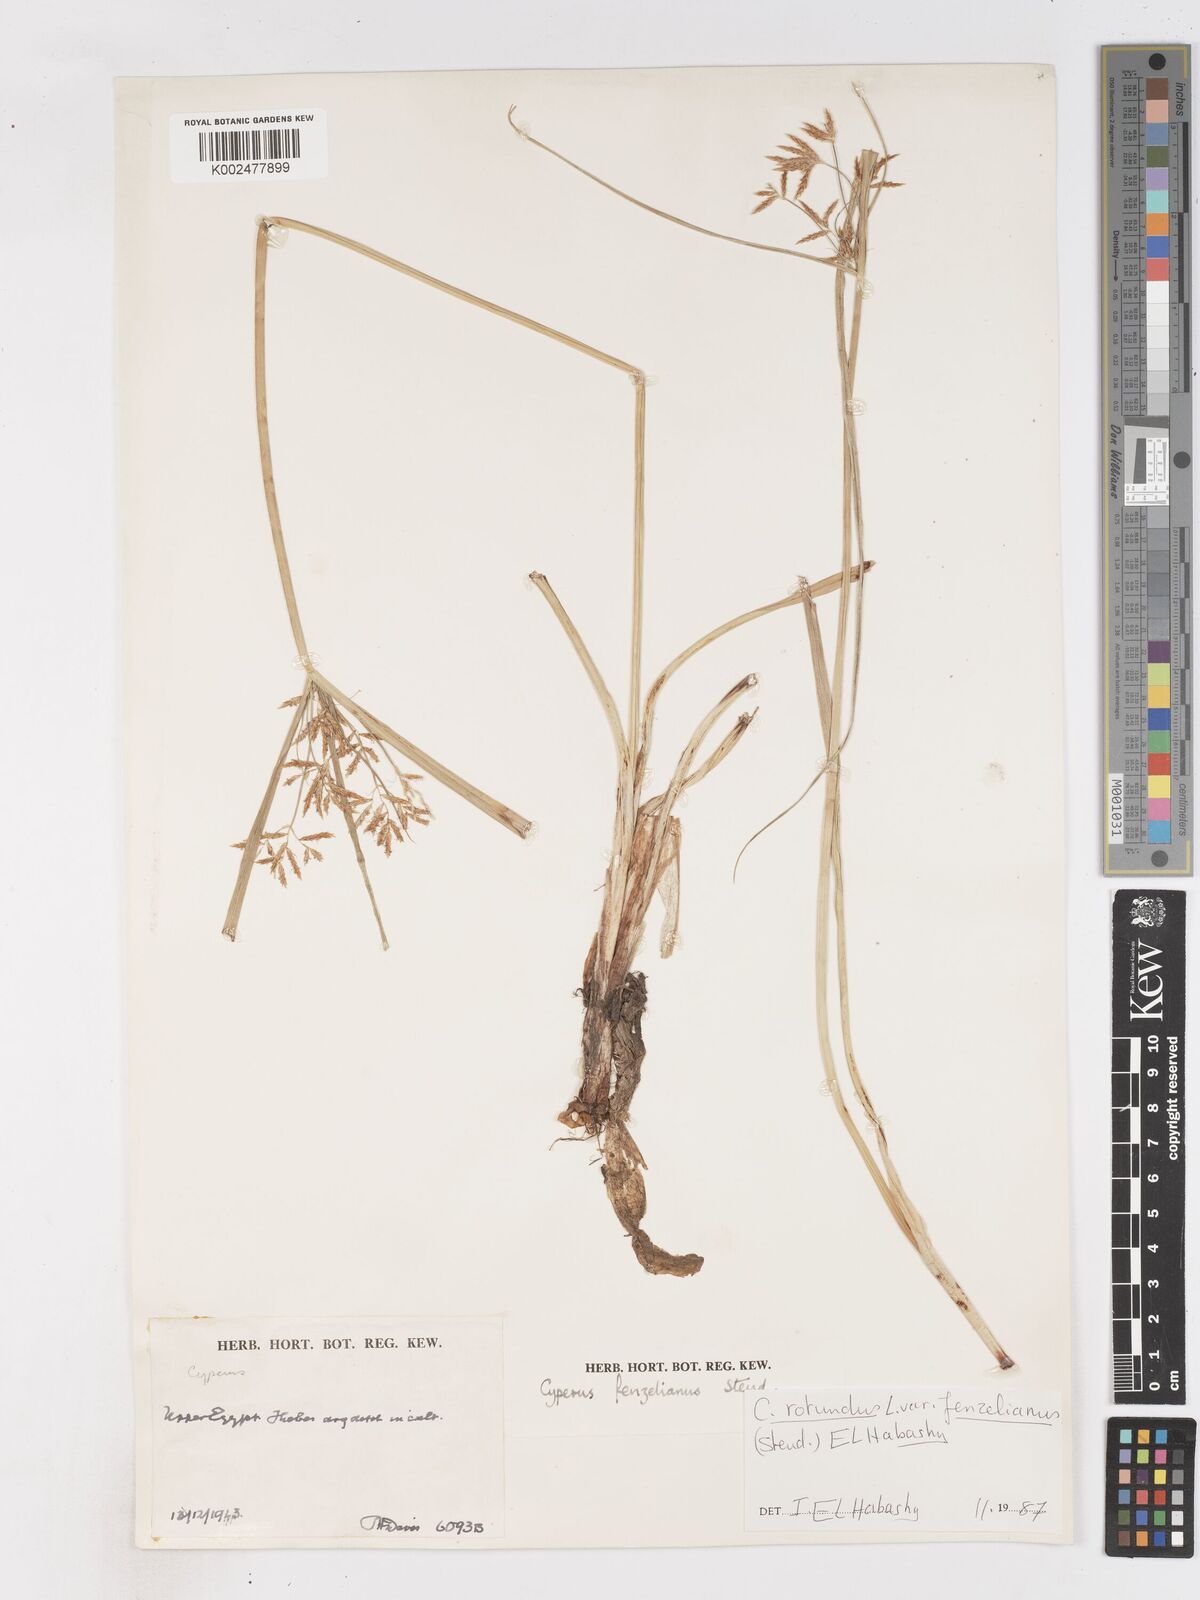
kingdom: Plantae
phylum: Tracheophyta
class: Liliopsida
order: Poales
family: Cyperaceae
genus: Cyperus
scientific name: Cyperus longus
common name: Galingale
